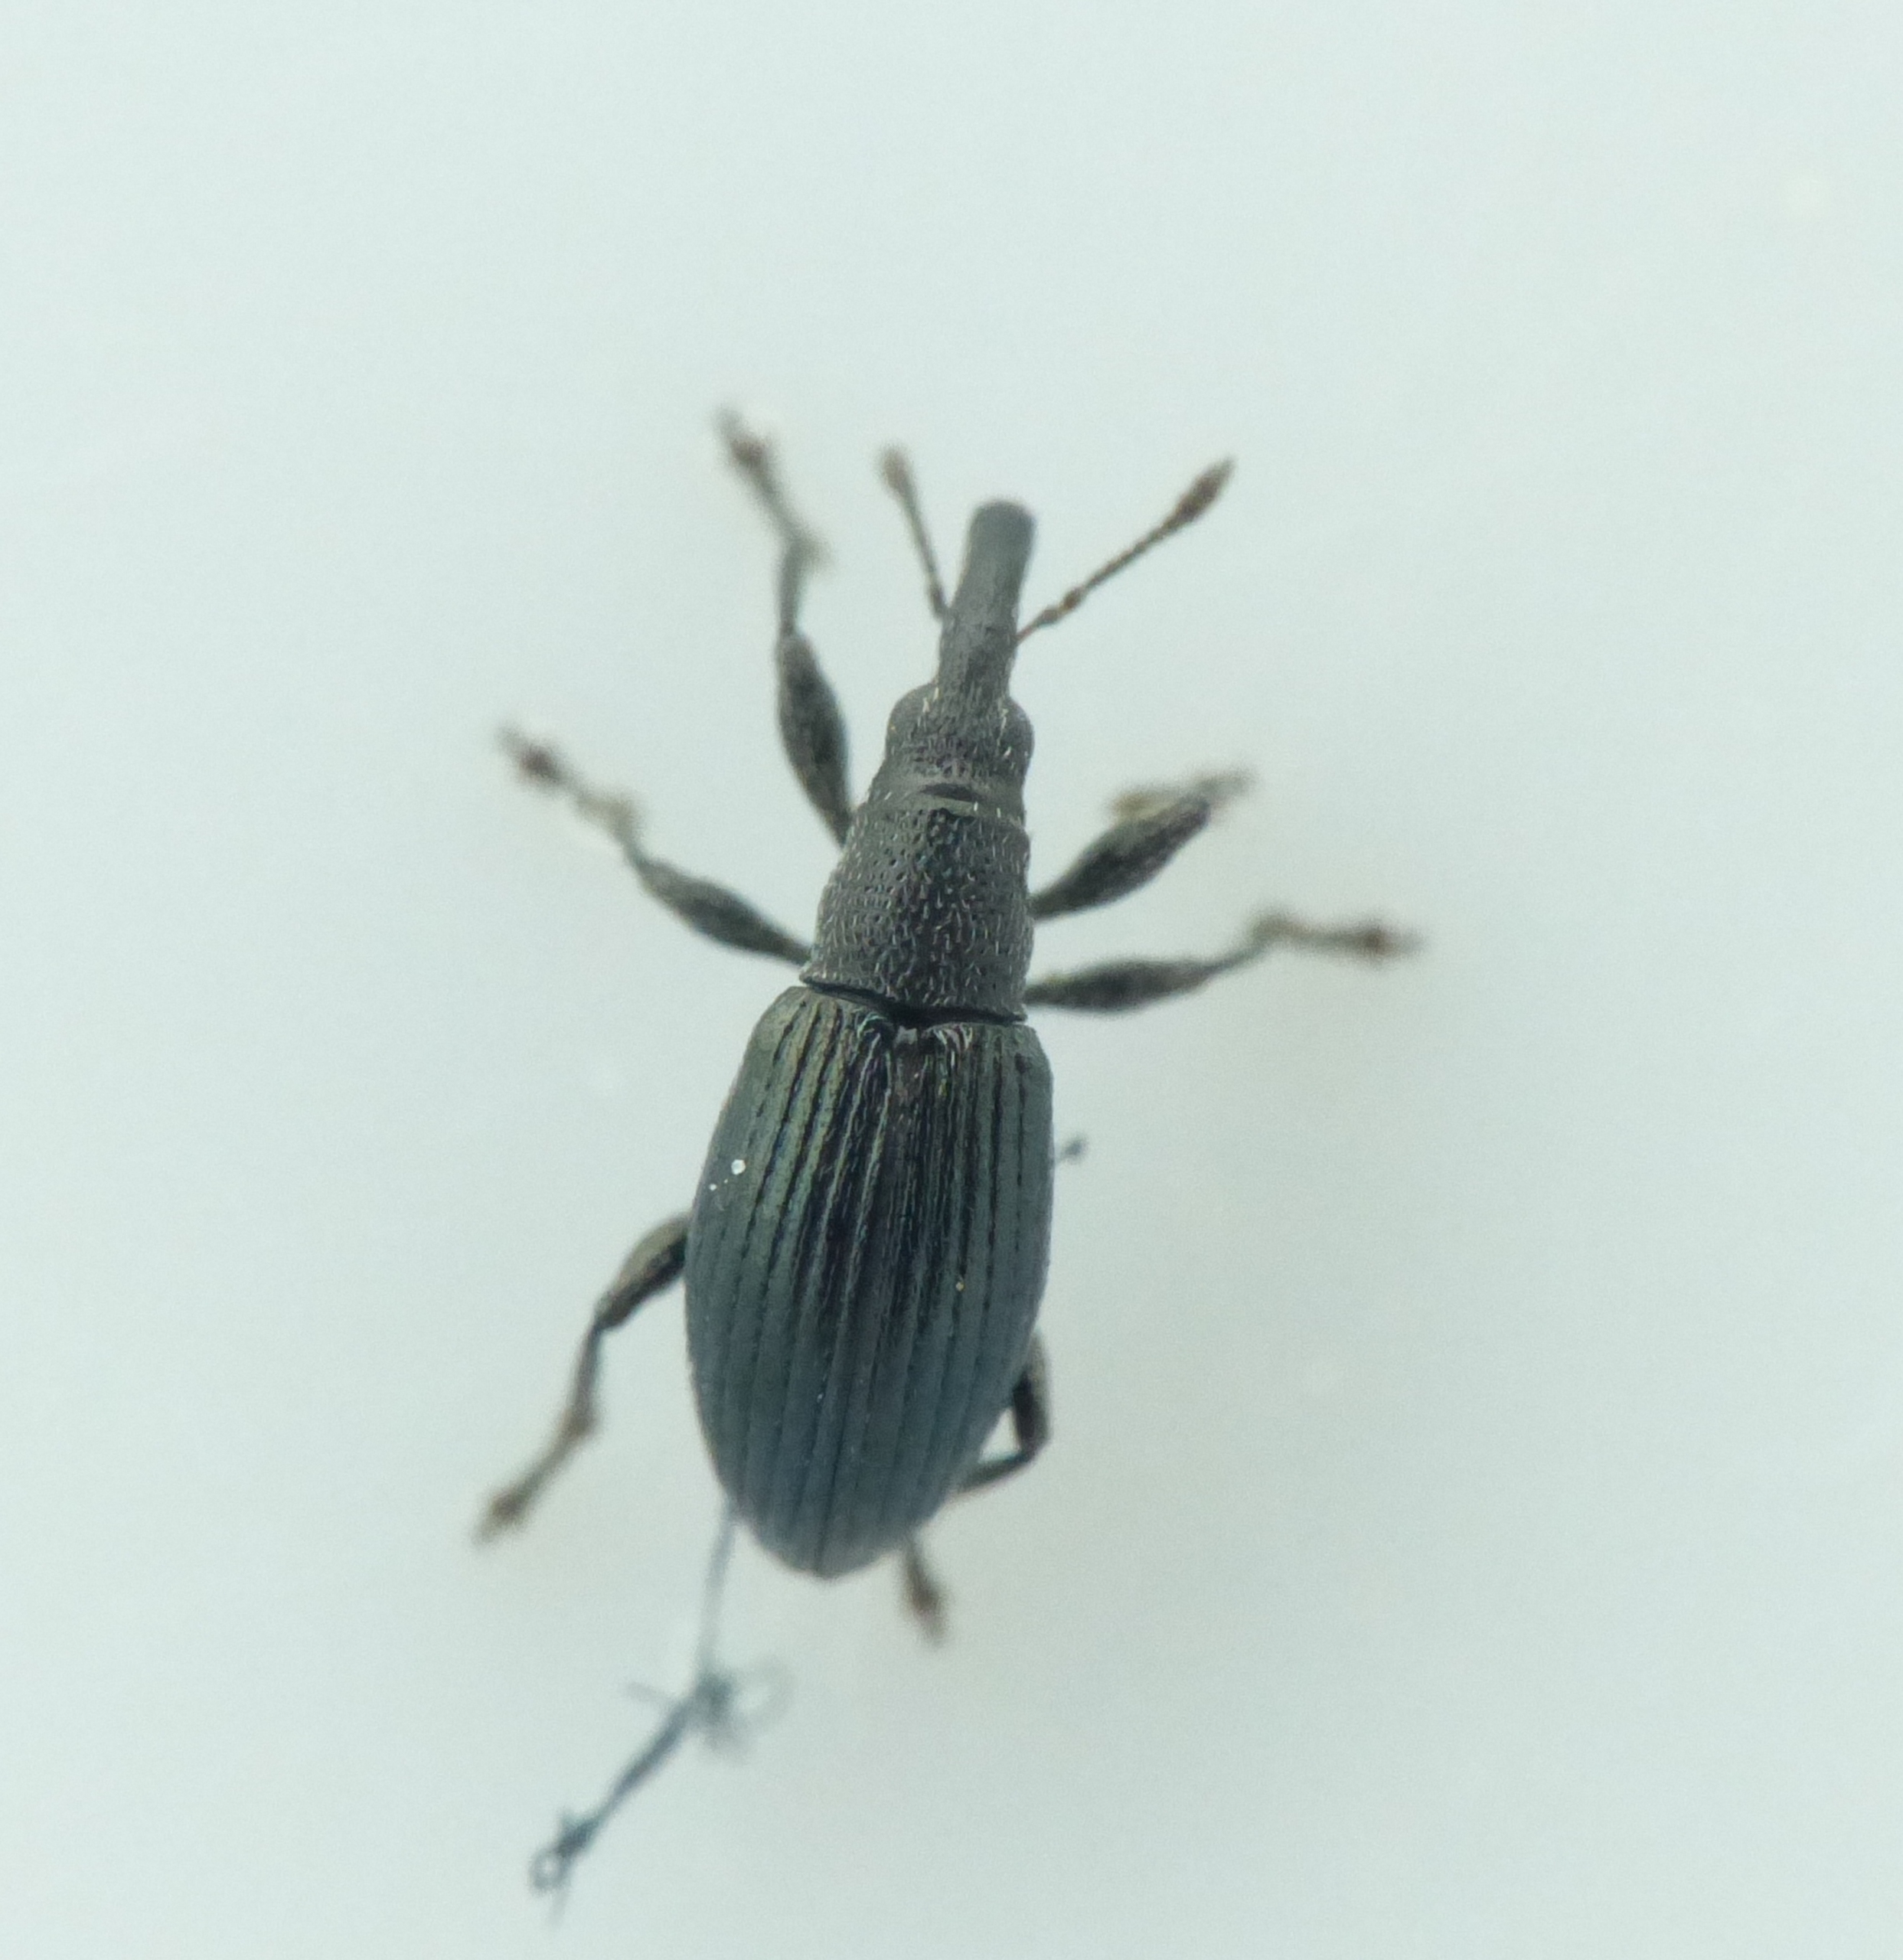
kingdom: Animalia
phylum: Arthropoda
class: Insecta
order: Coleoptera
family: Apionidae
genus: Aspidapion
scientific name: Aspidapion radiolus
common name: Stokrosesnudebille
